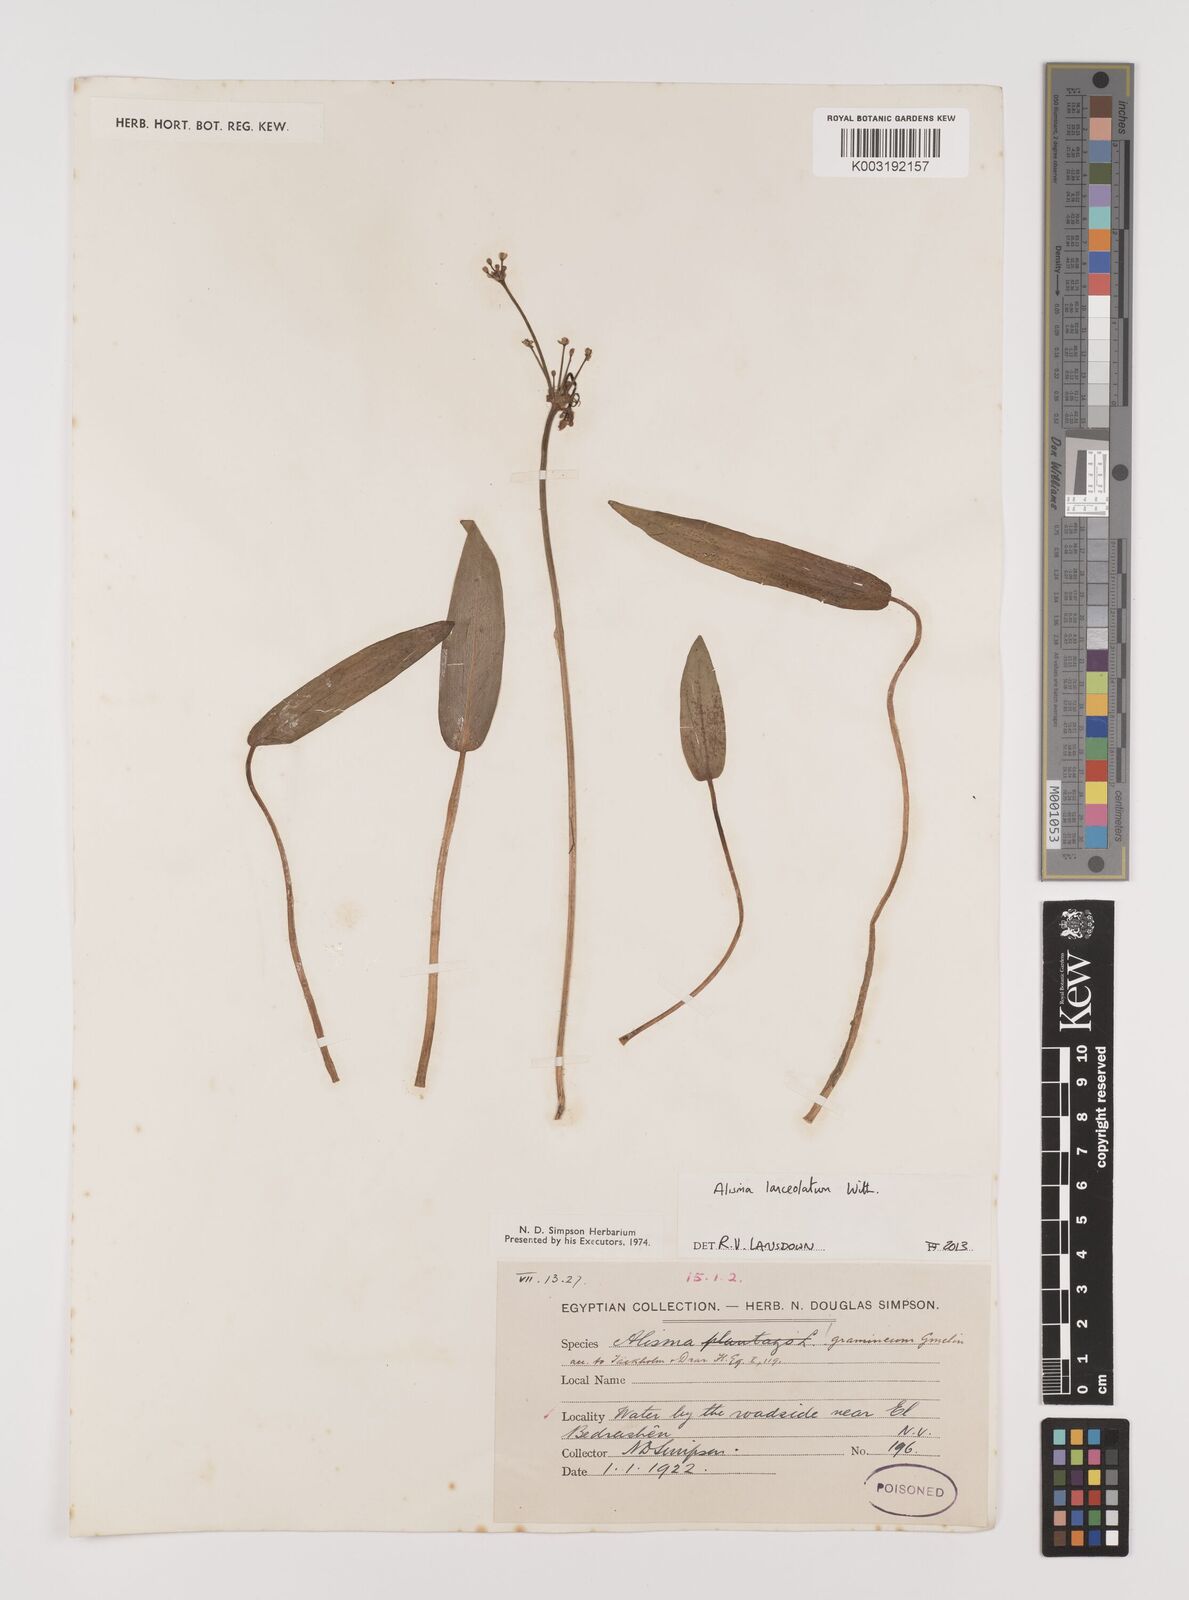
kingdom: Plantae
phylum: Tracheophyta
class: Liliopsida
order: Alismatales
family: Alismataceae
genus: Alisma
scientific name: Alisma lanceolatum
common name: Narrow-leaved water-plantain
